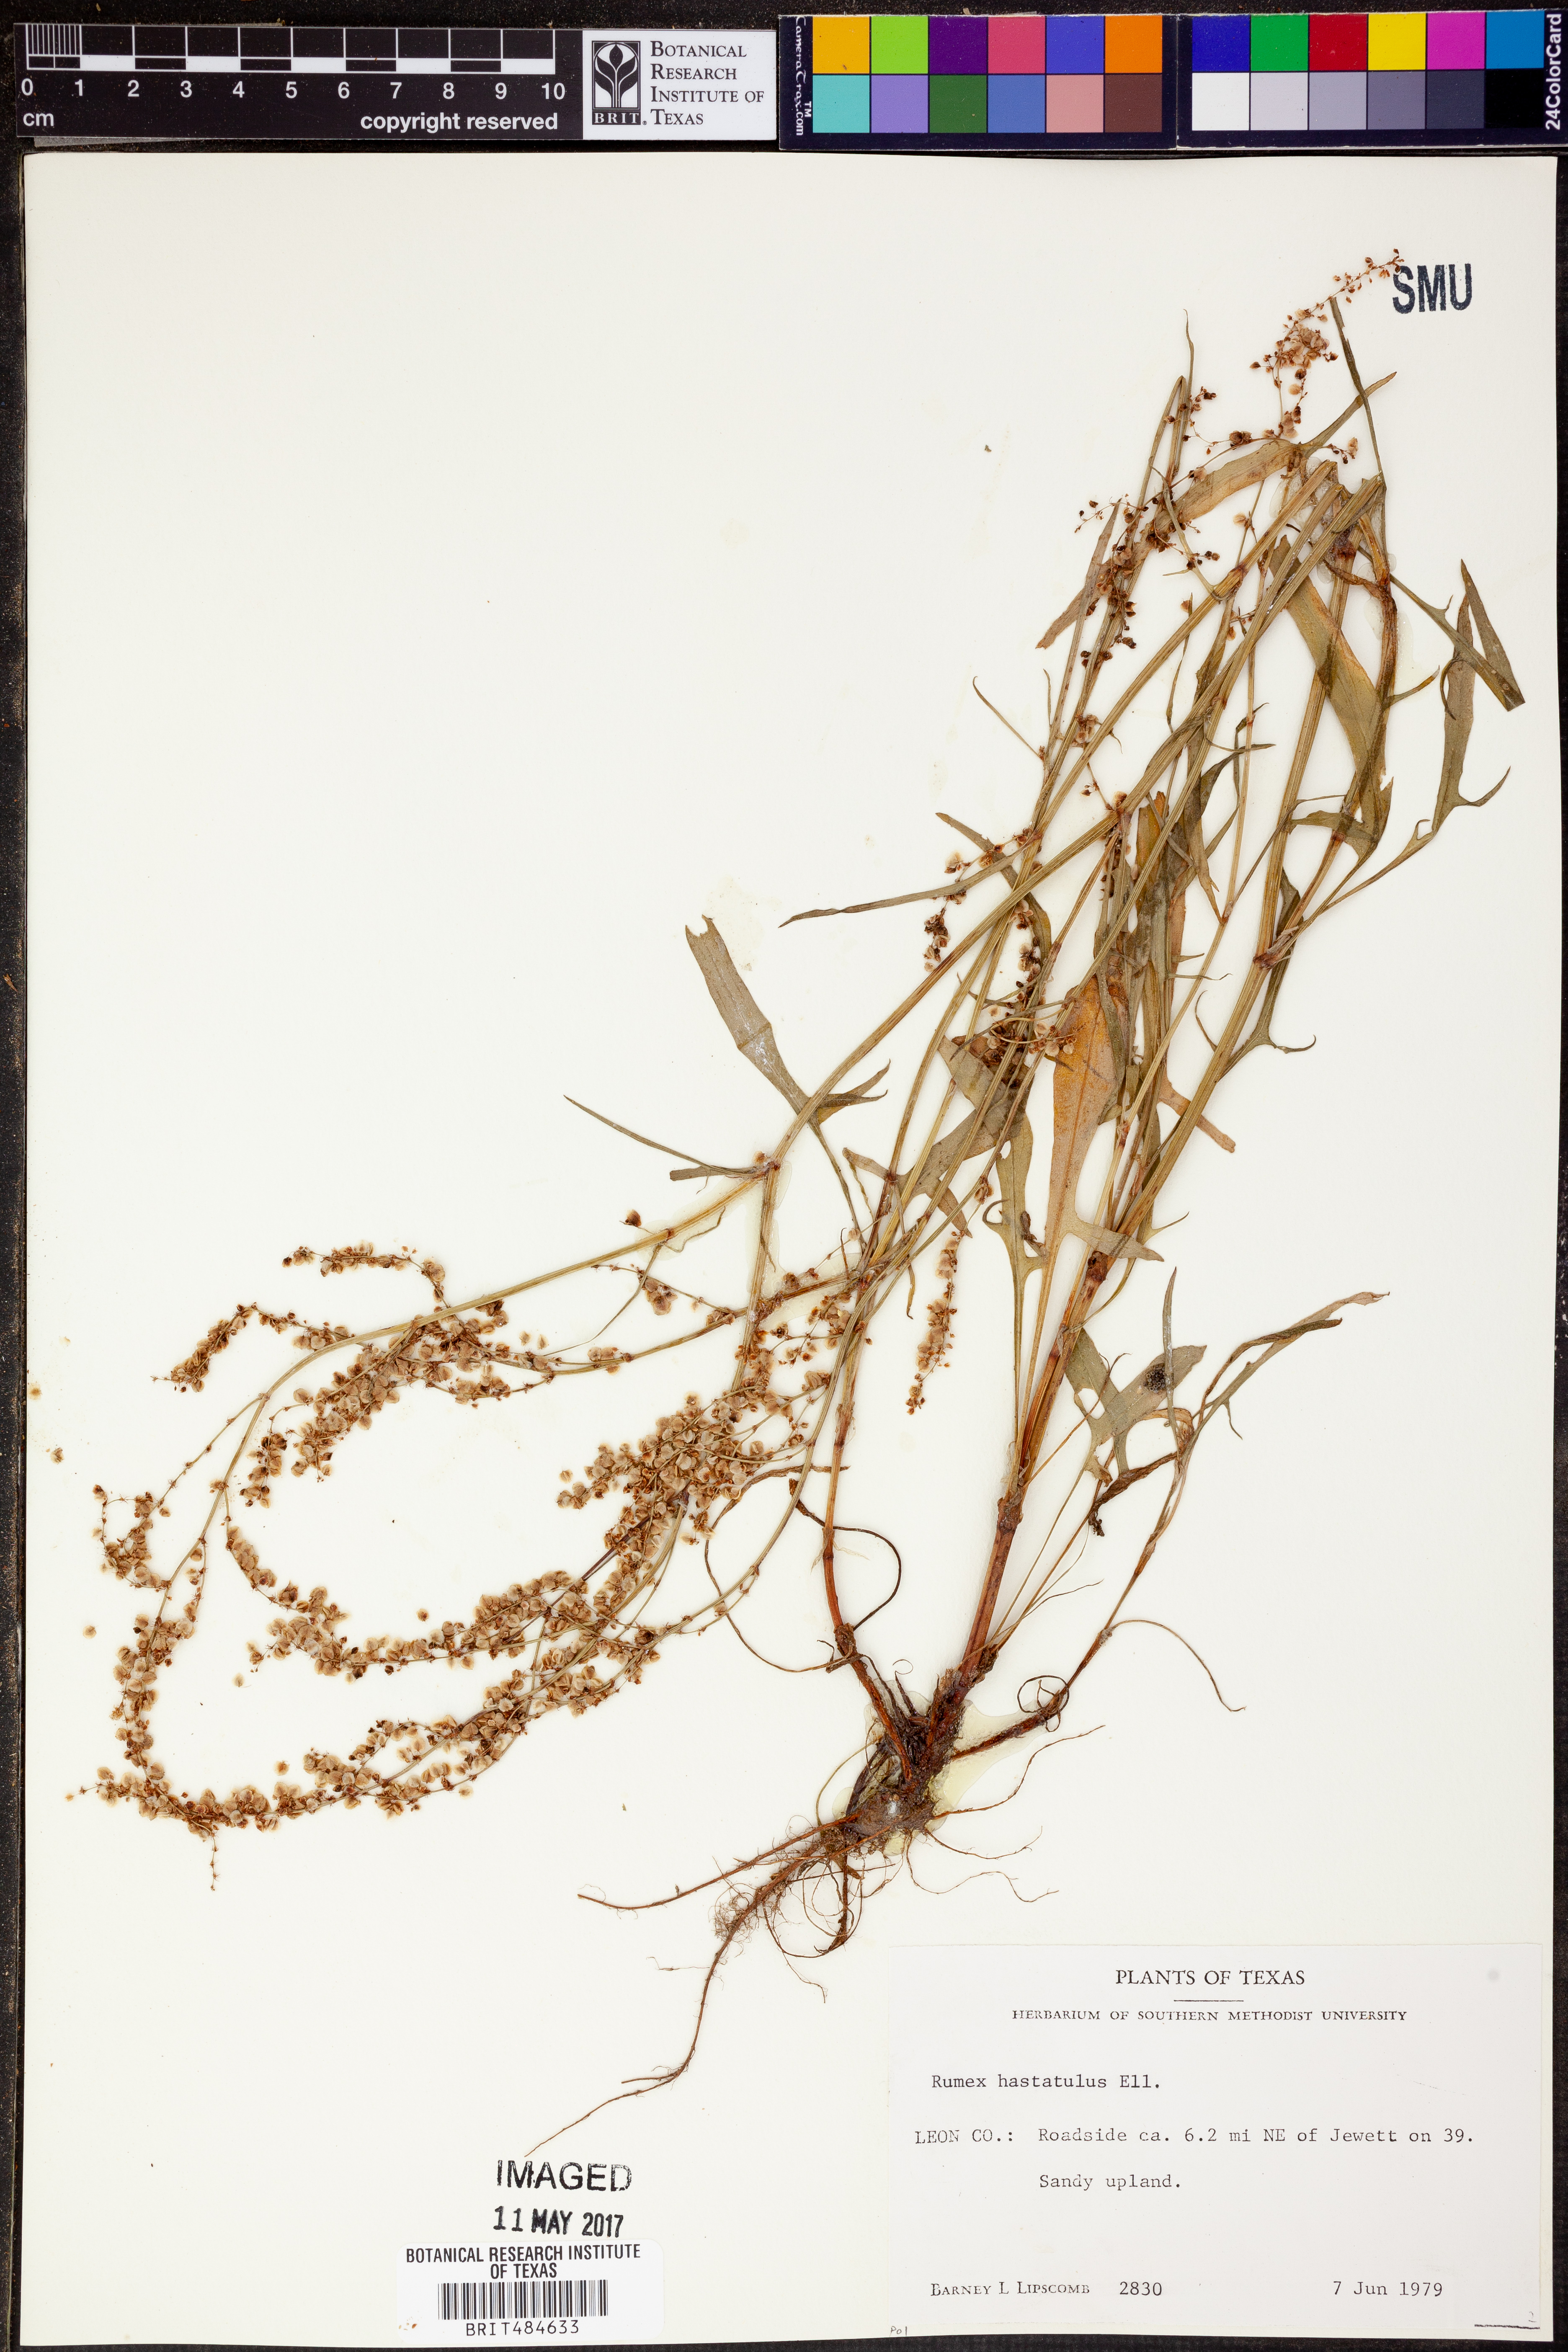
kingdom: Plantae
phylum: Tracheophyta
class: Magnoliopsida
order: Caryophyllales
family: Polygonaceae
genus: Rumex
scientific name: Rumex hastatulus
